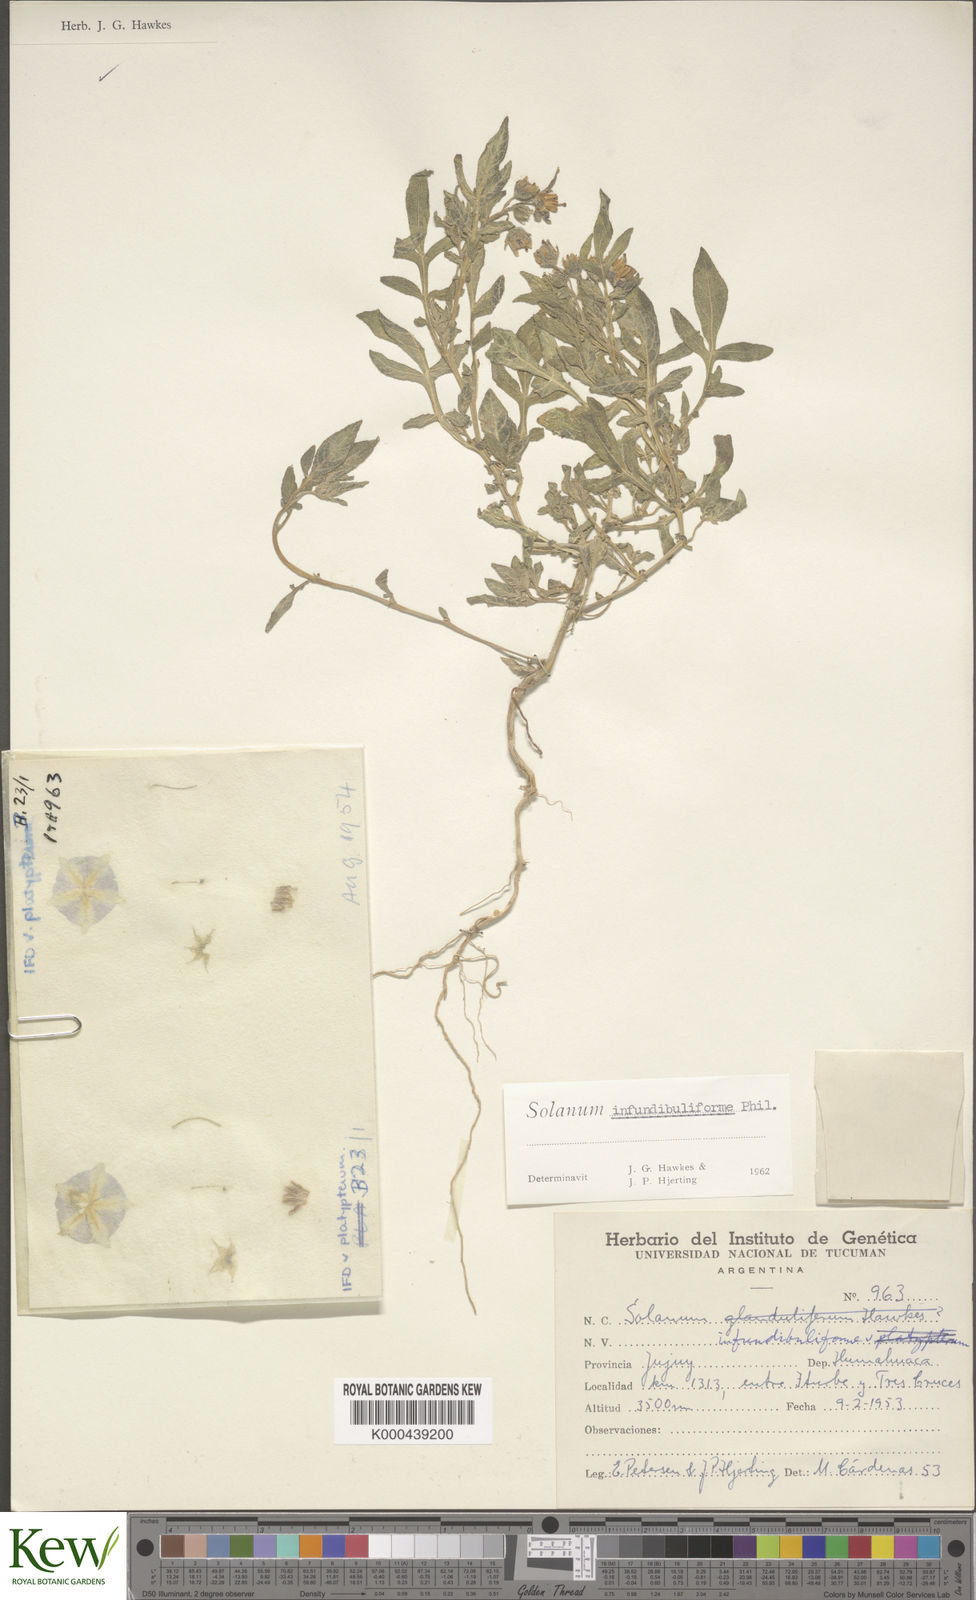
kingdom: Plantae
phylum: Tracheophyta
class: Magnoliopsida
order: Solanales
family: Solanaceae
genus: Solanum
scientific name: Solanum infundibuliforme
